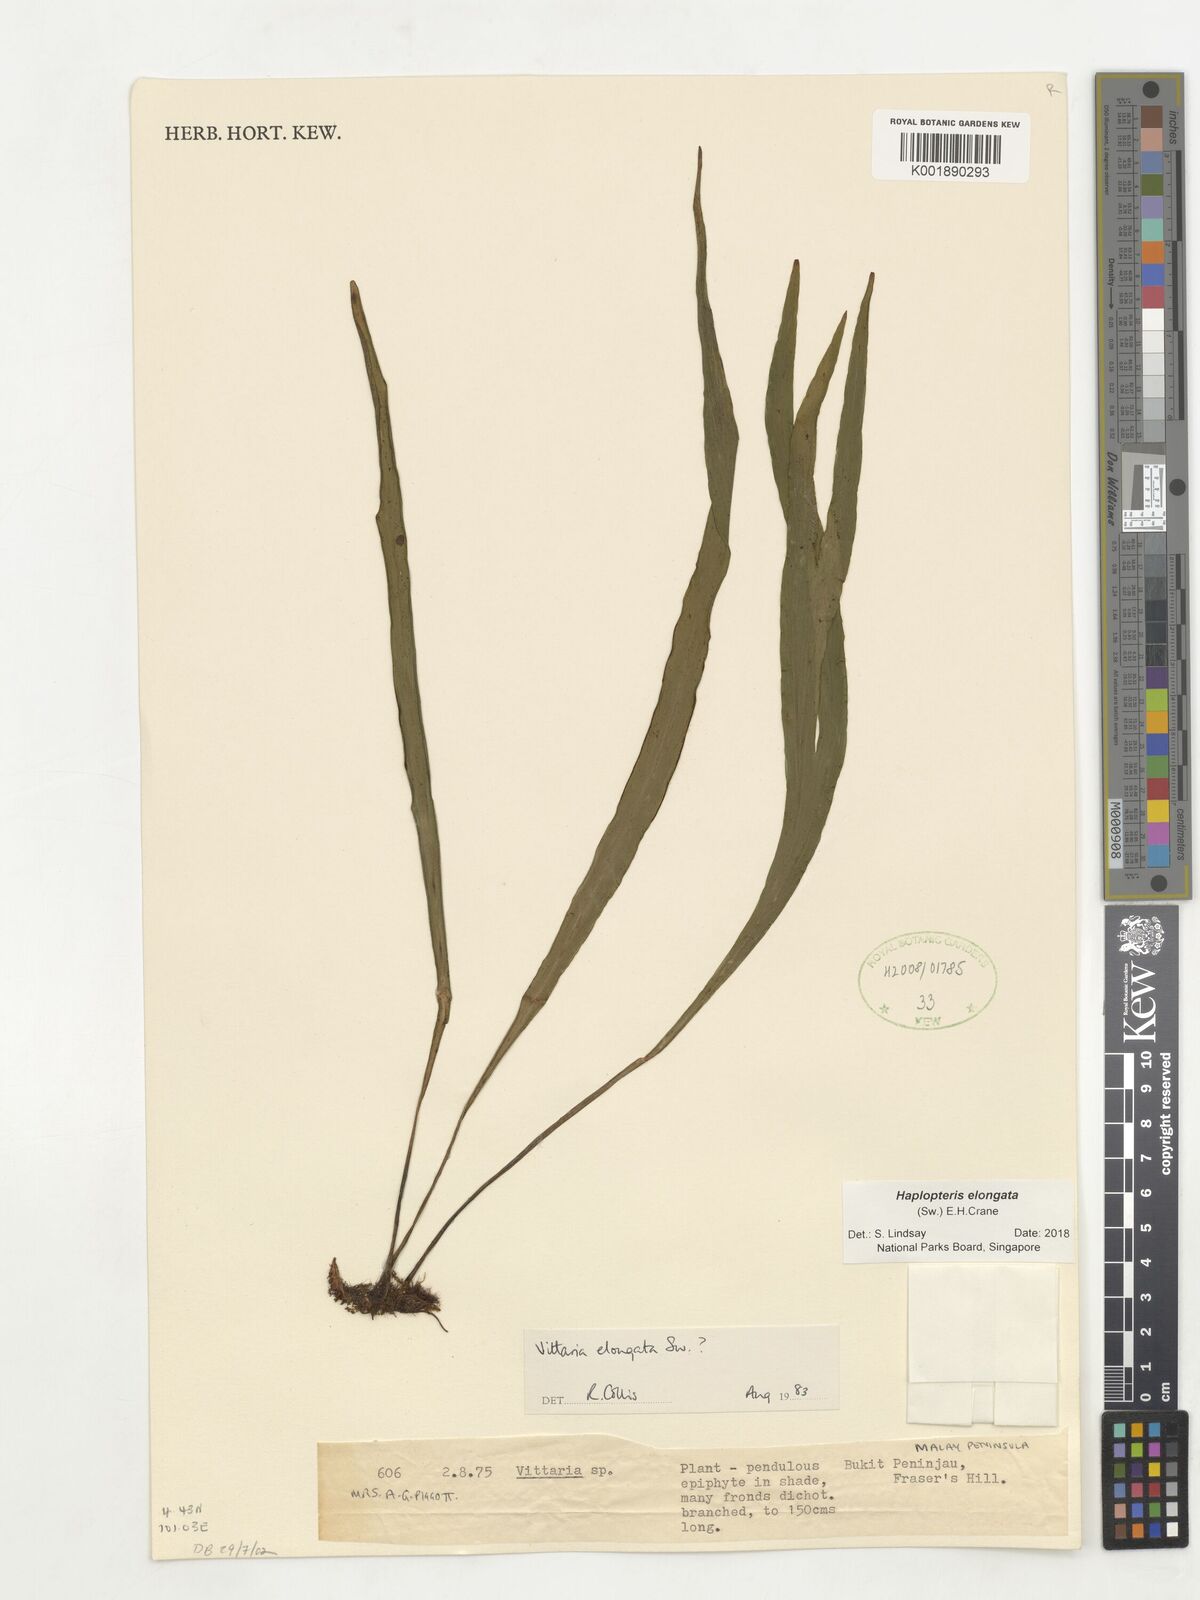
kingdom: Plantae
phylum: Tracheophyta
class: Polypodiopsida
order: Polypodiales
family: Pteridaceae
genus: Haplopteris
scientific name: Haplopteris elongata
